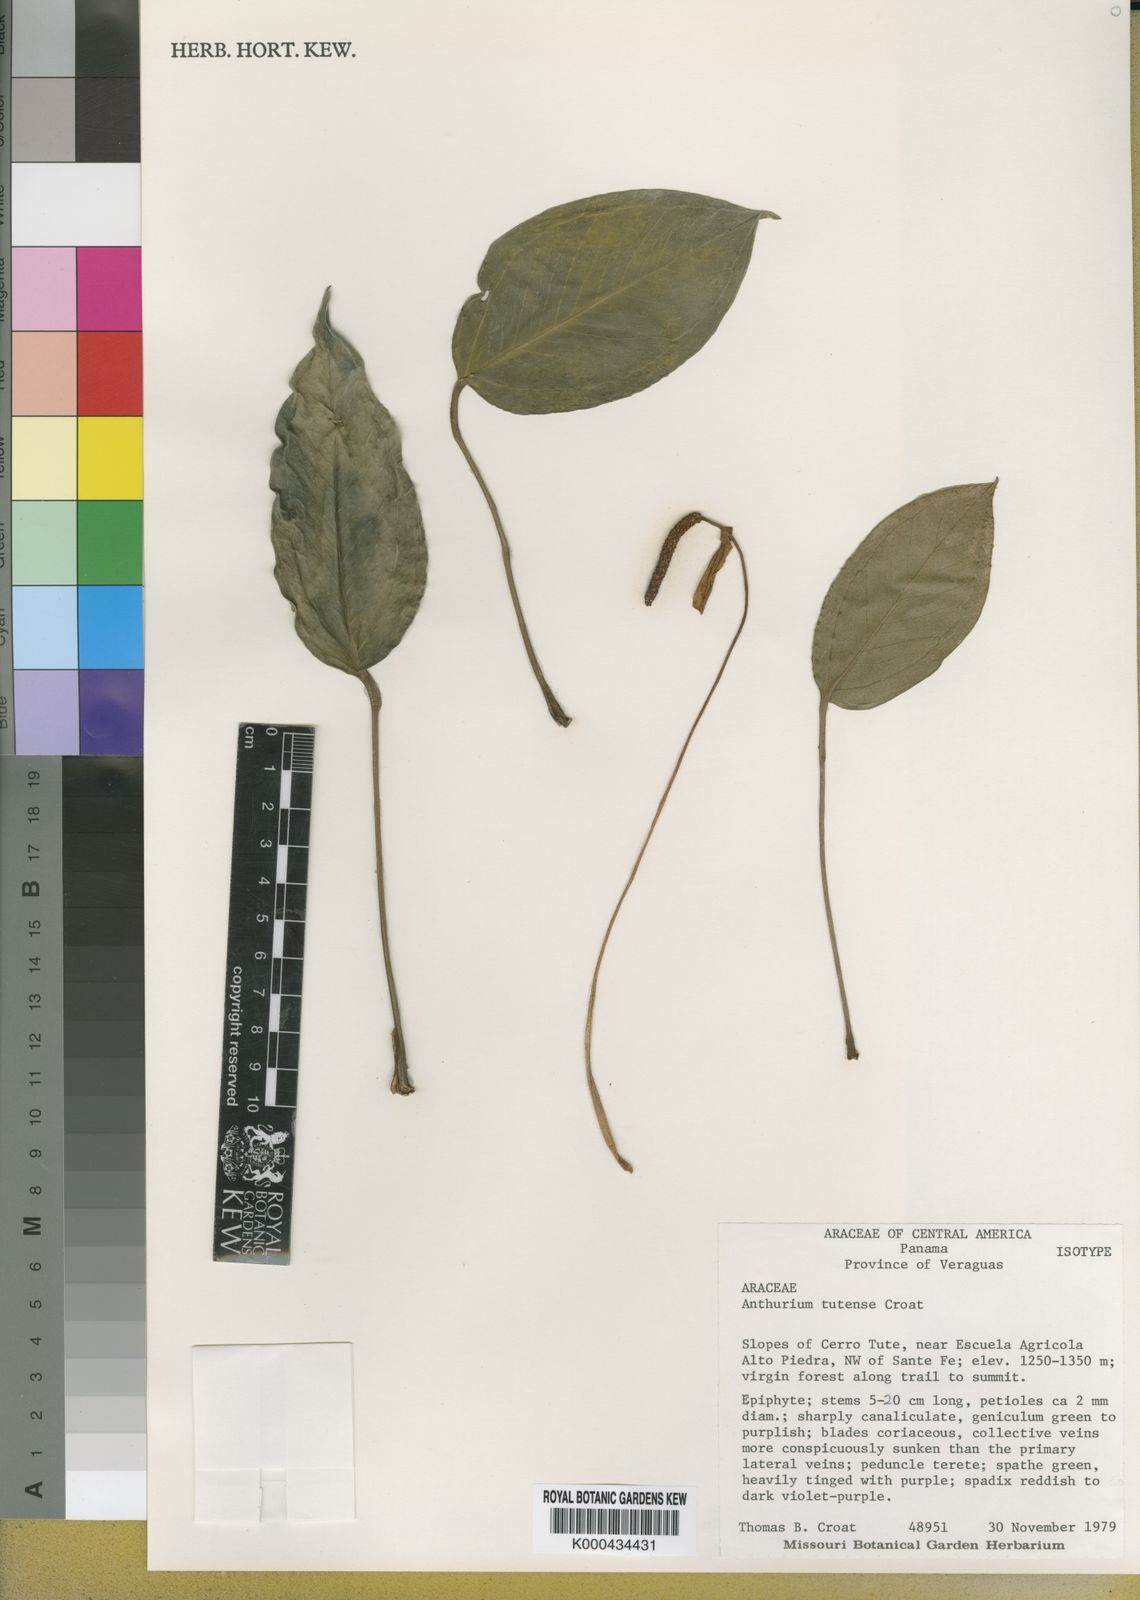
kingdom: Plantae
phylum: Tracheophyta
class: Liliopsida
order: Alismatales
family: Araceae
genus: Anthurium
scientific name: Anthurium tutense
